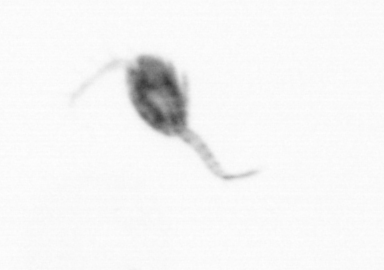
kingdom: Animalia
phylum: Arthropoda
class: Copepoda
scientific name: Copepoda
